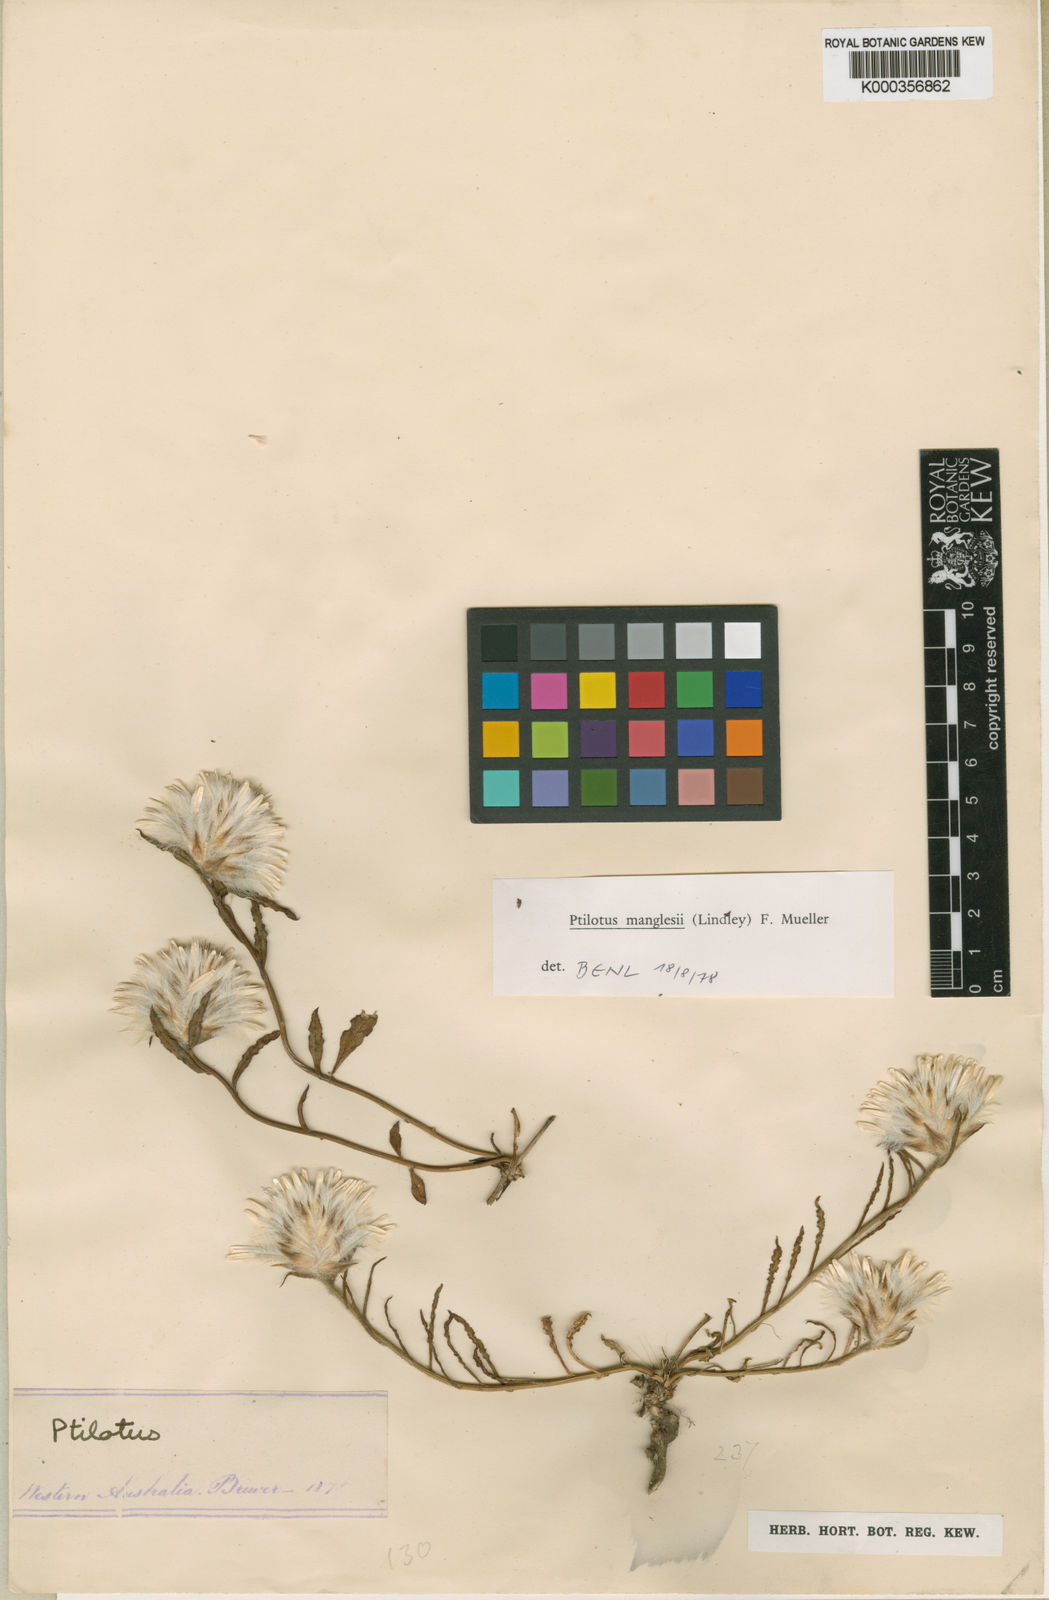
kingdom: Plantae
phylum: Tracheophyta
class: Magnoliopsida
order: Caryophyllales
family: Amaranthaceae
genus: Ptilotus
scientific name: Ptilotus manglesii
